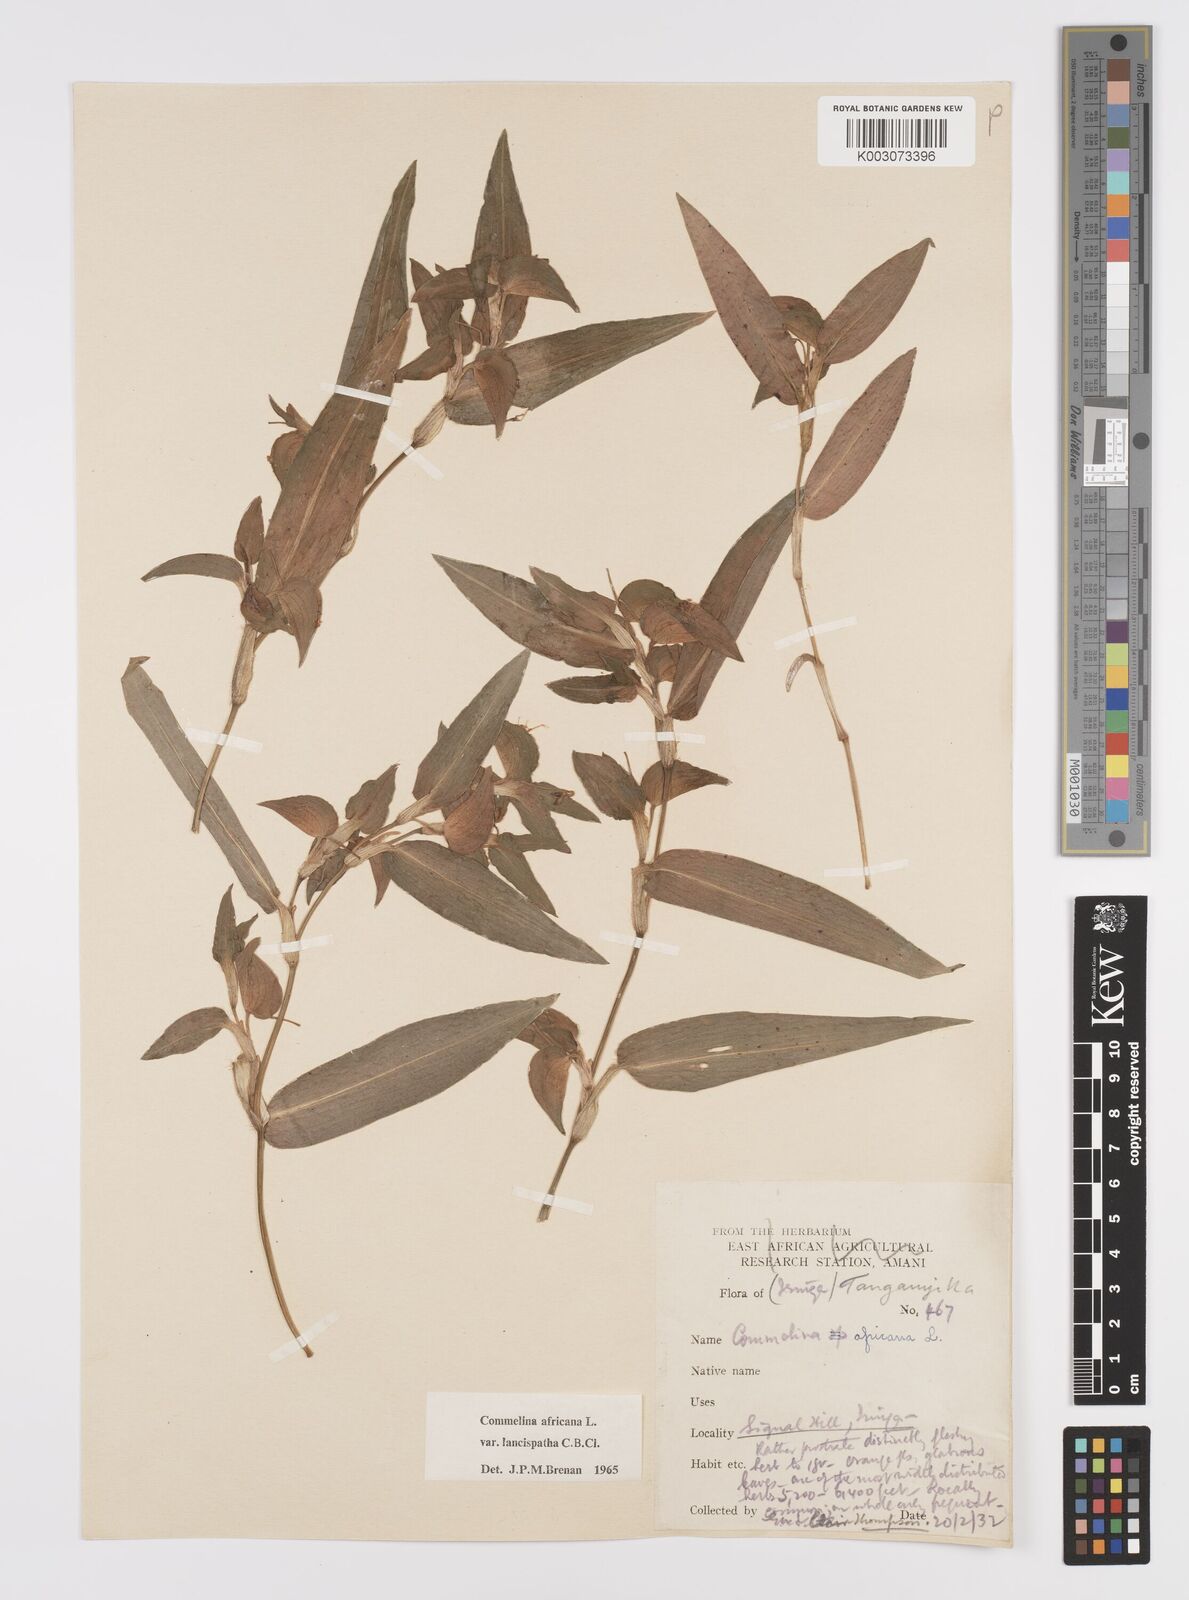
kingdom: Plantae
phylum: Tracheophyta
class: Liliopsida
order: Commelinales
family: Commelinaceae
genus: Commelina
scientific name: Commelina africana
